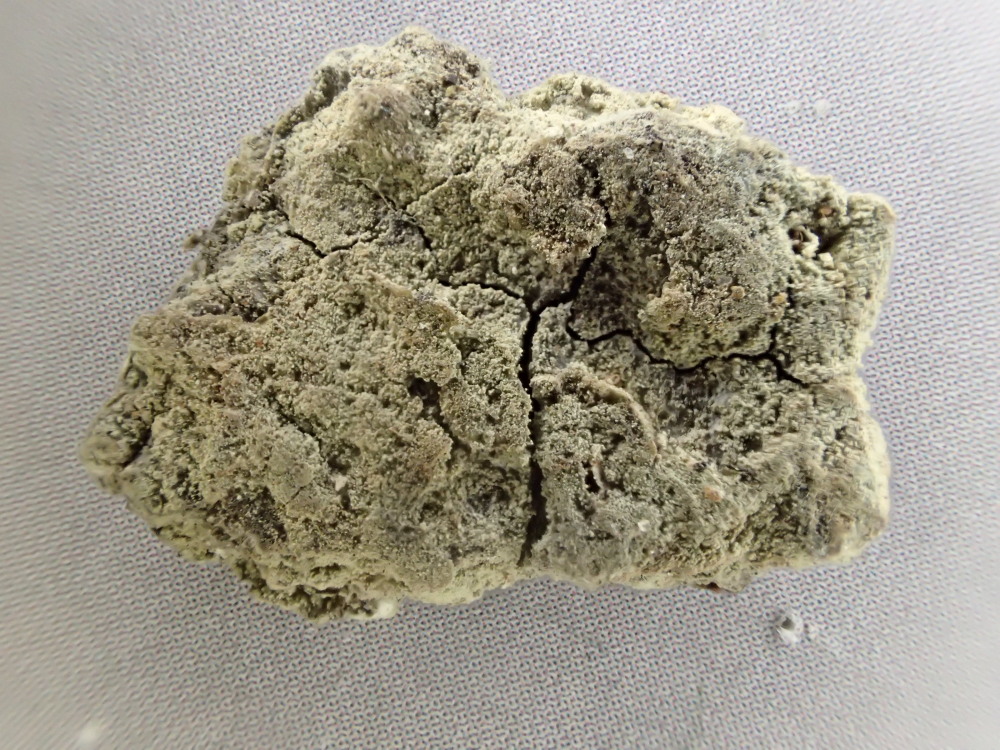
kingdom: Fungi
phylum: Ascomycota
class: Lecanoromycetes
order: Lecanorales
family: Lecanoraceae
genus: Lecanora
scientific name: Lecanora expallens
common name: bleggul kantskivelav
